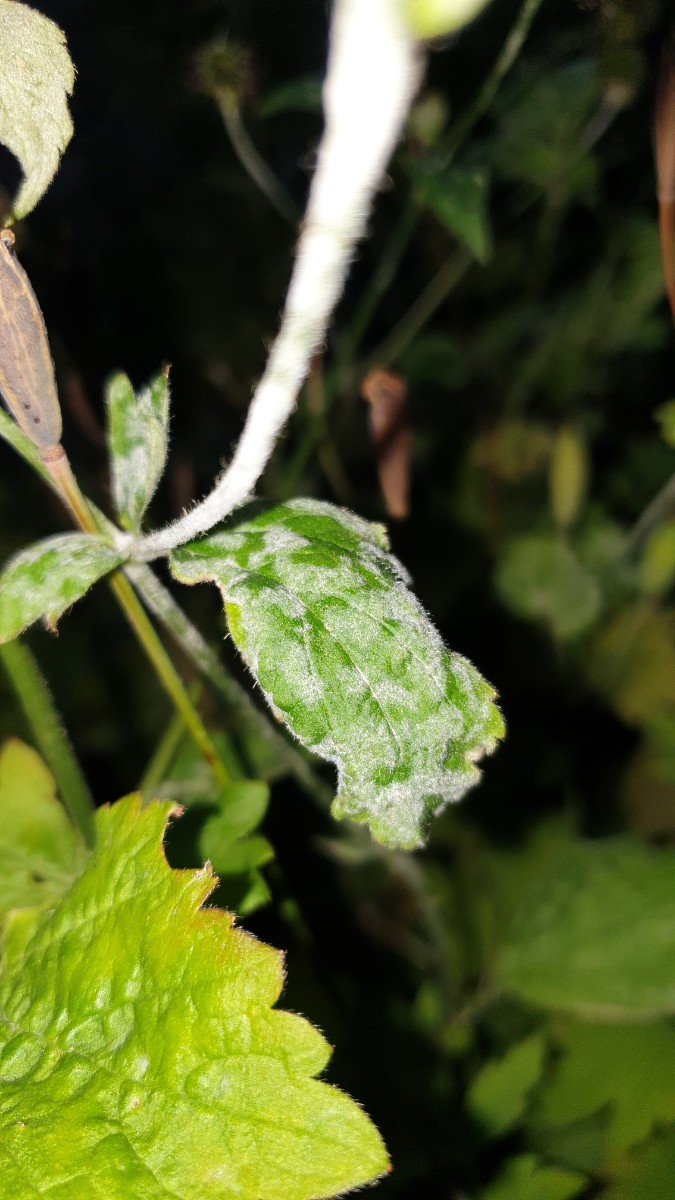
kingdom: Fungi
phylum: Ascomycota
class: Leotiomycetes
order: Helotiales
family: Erysiphaceae
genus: Podosphaera
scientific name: Podosphaera aphanis
